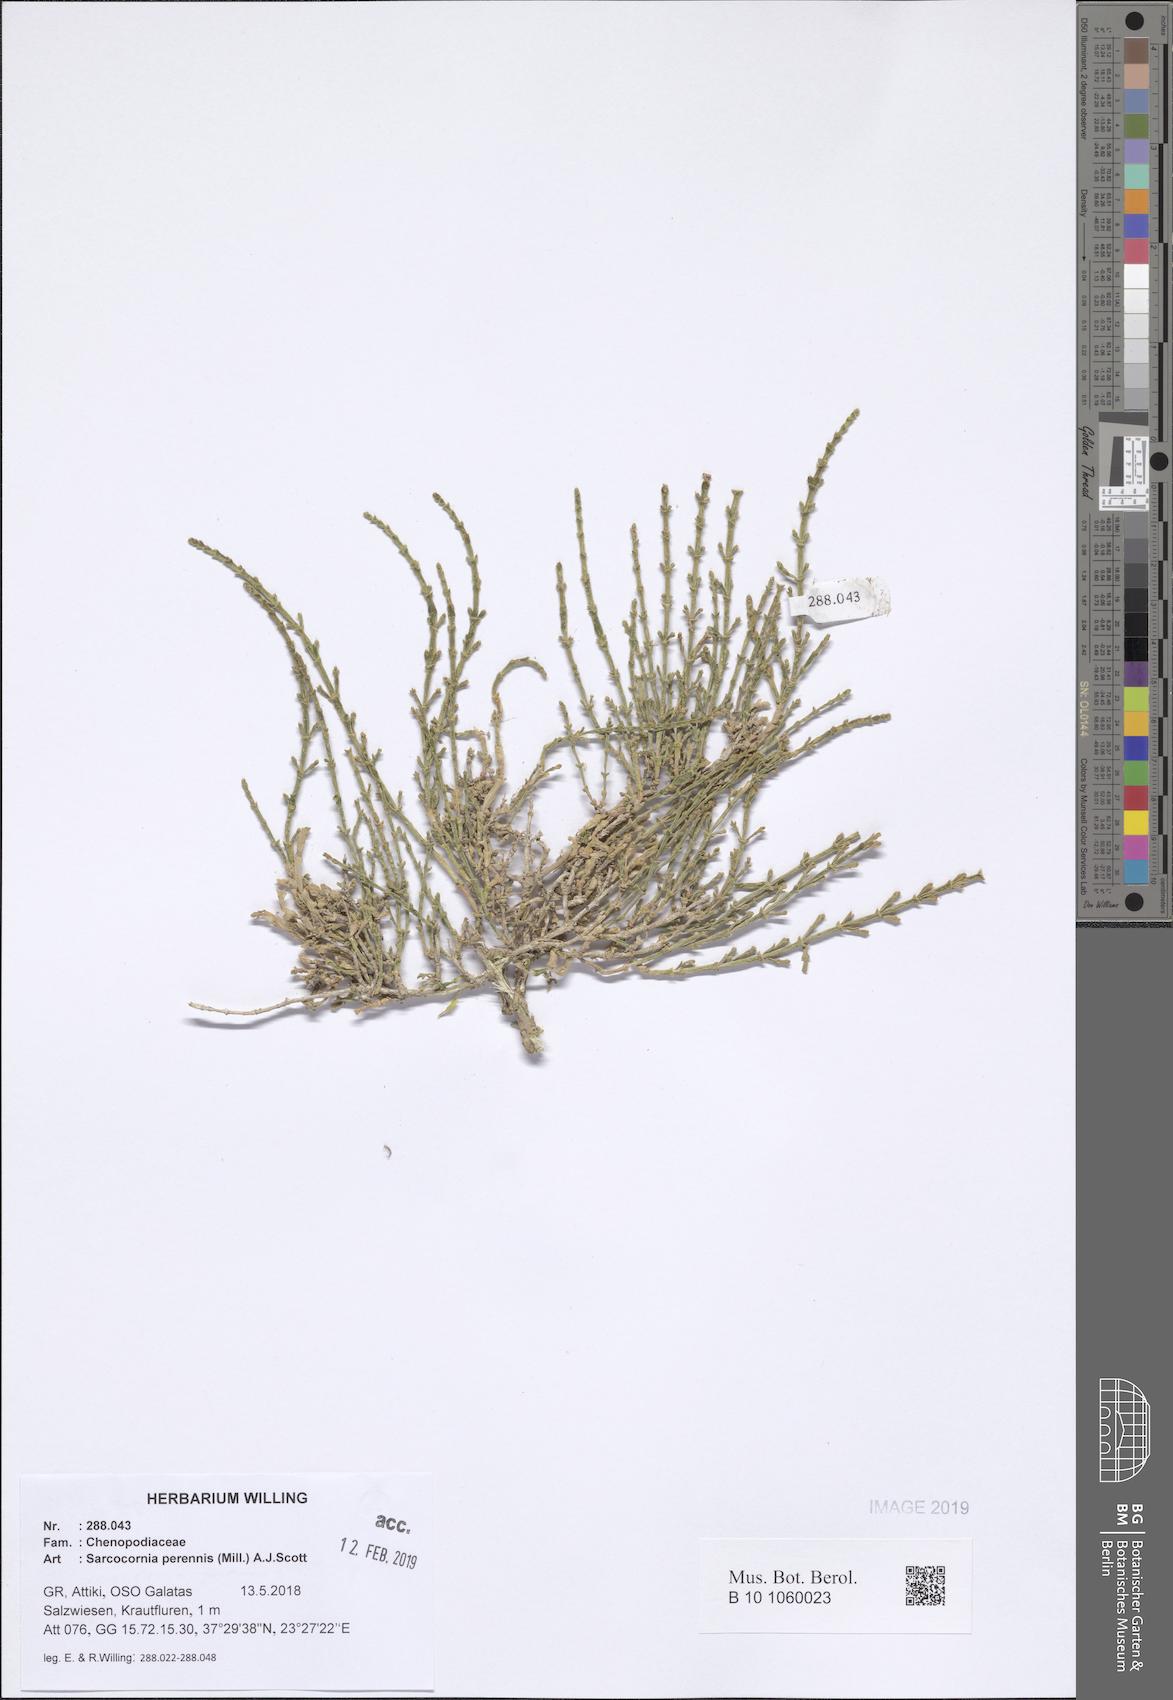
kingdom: Plantae
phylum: Tracheophyta
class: Magnoliopsida
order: Caryophyllales
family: Amaranthaceae
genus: Salicornia
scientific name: Salicornia perennis
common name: Chicken claws
